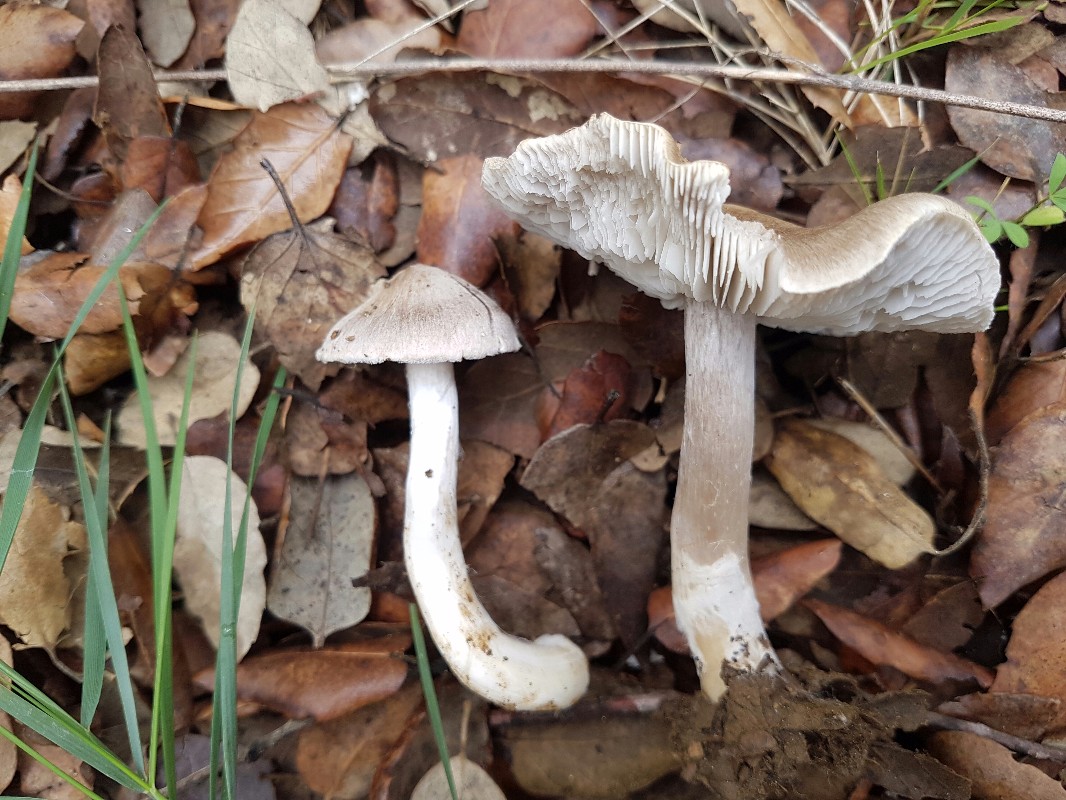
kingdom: Fungi
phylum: Basidiomycota
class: Agaricomycetes
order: Agaricales
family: Tricholomataceae
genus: Tricholoma
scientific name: Tricholoma argyraceum
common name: slør-ridderhat
